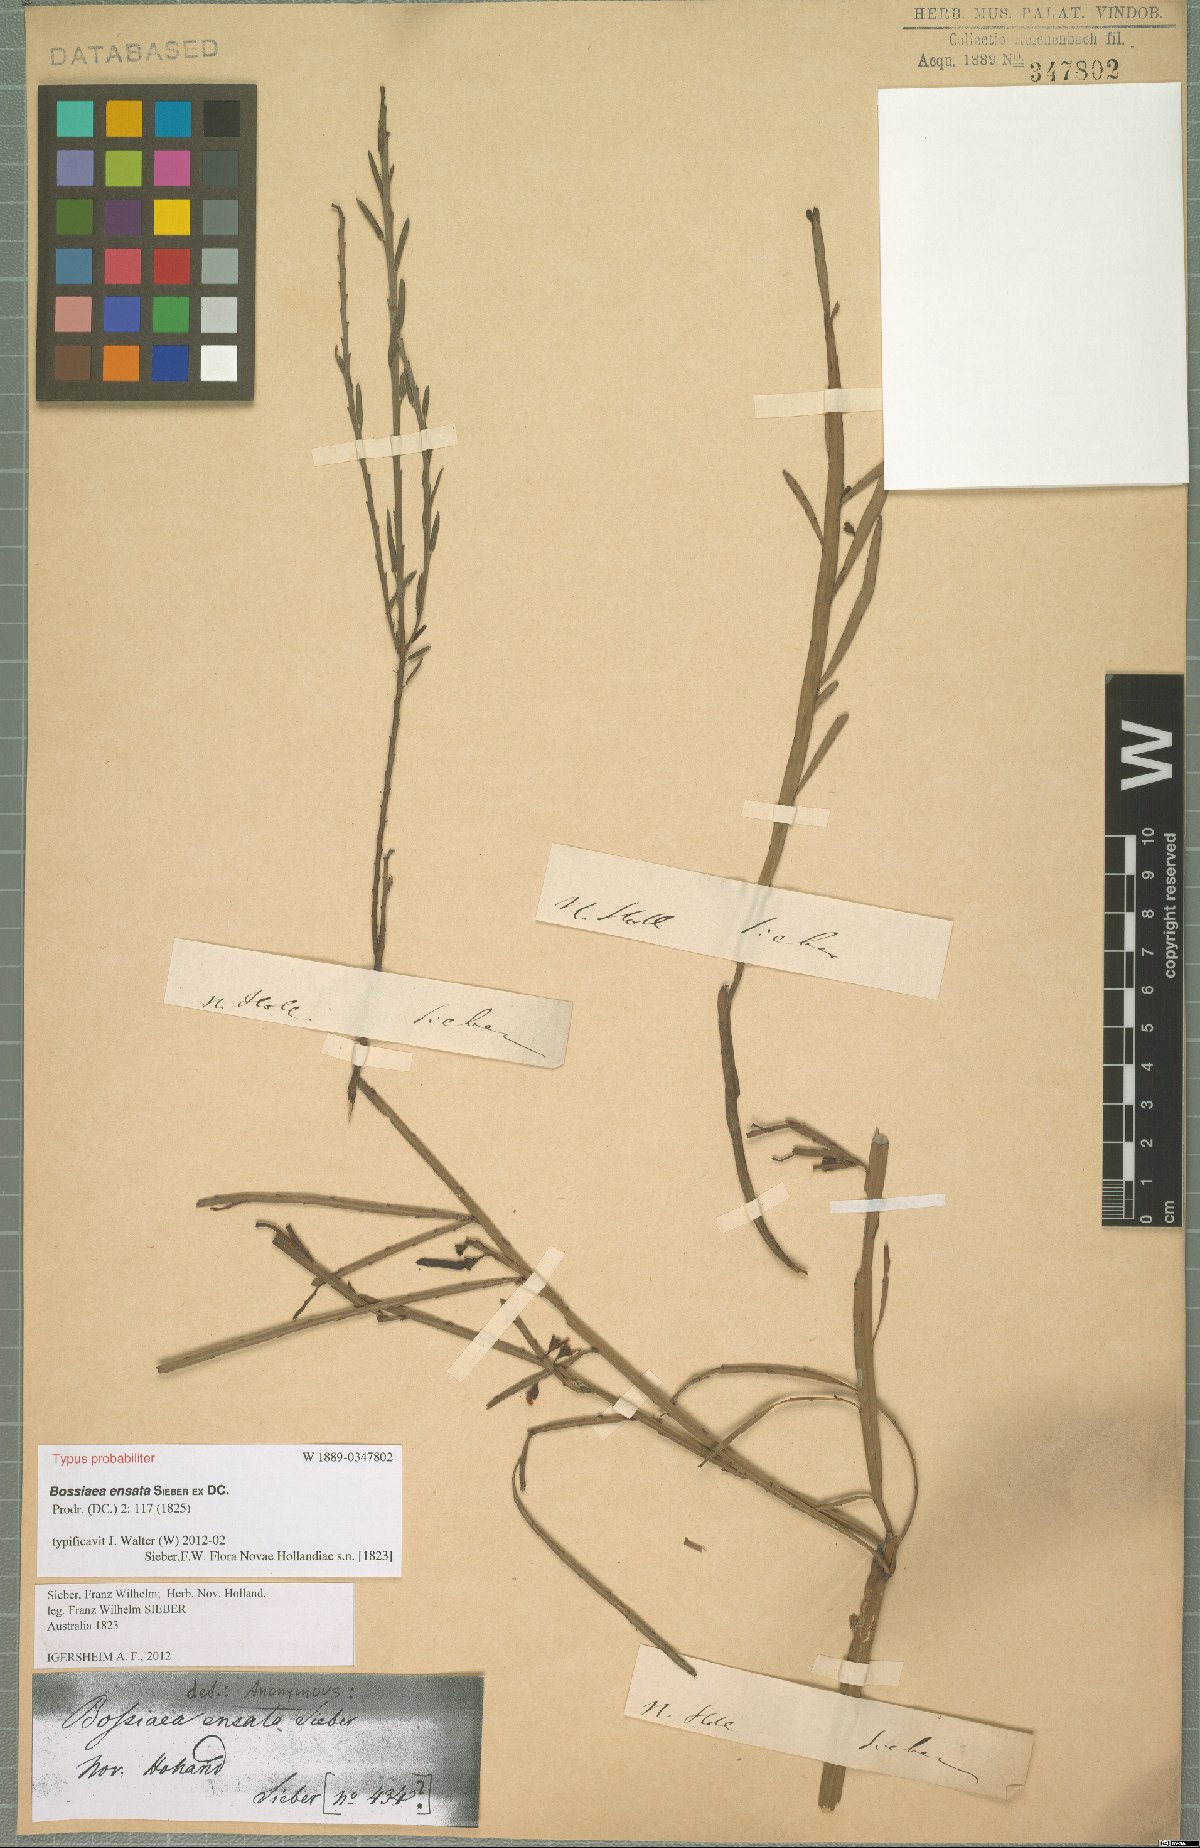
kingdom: Plantae
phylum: Tracheophyta
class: Magnoliopsida
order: Fabales
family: Fabaceae
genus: Bossiaea
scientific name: Bossiaea ensata
